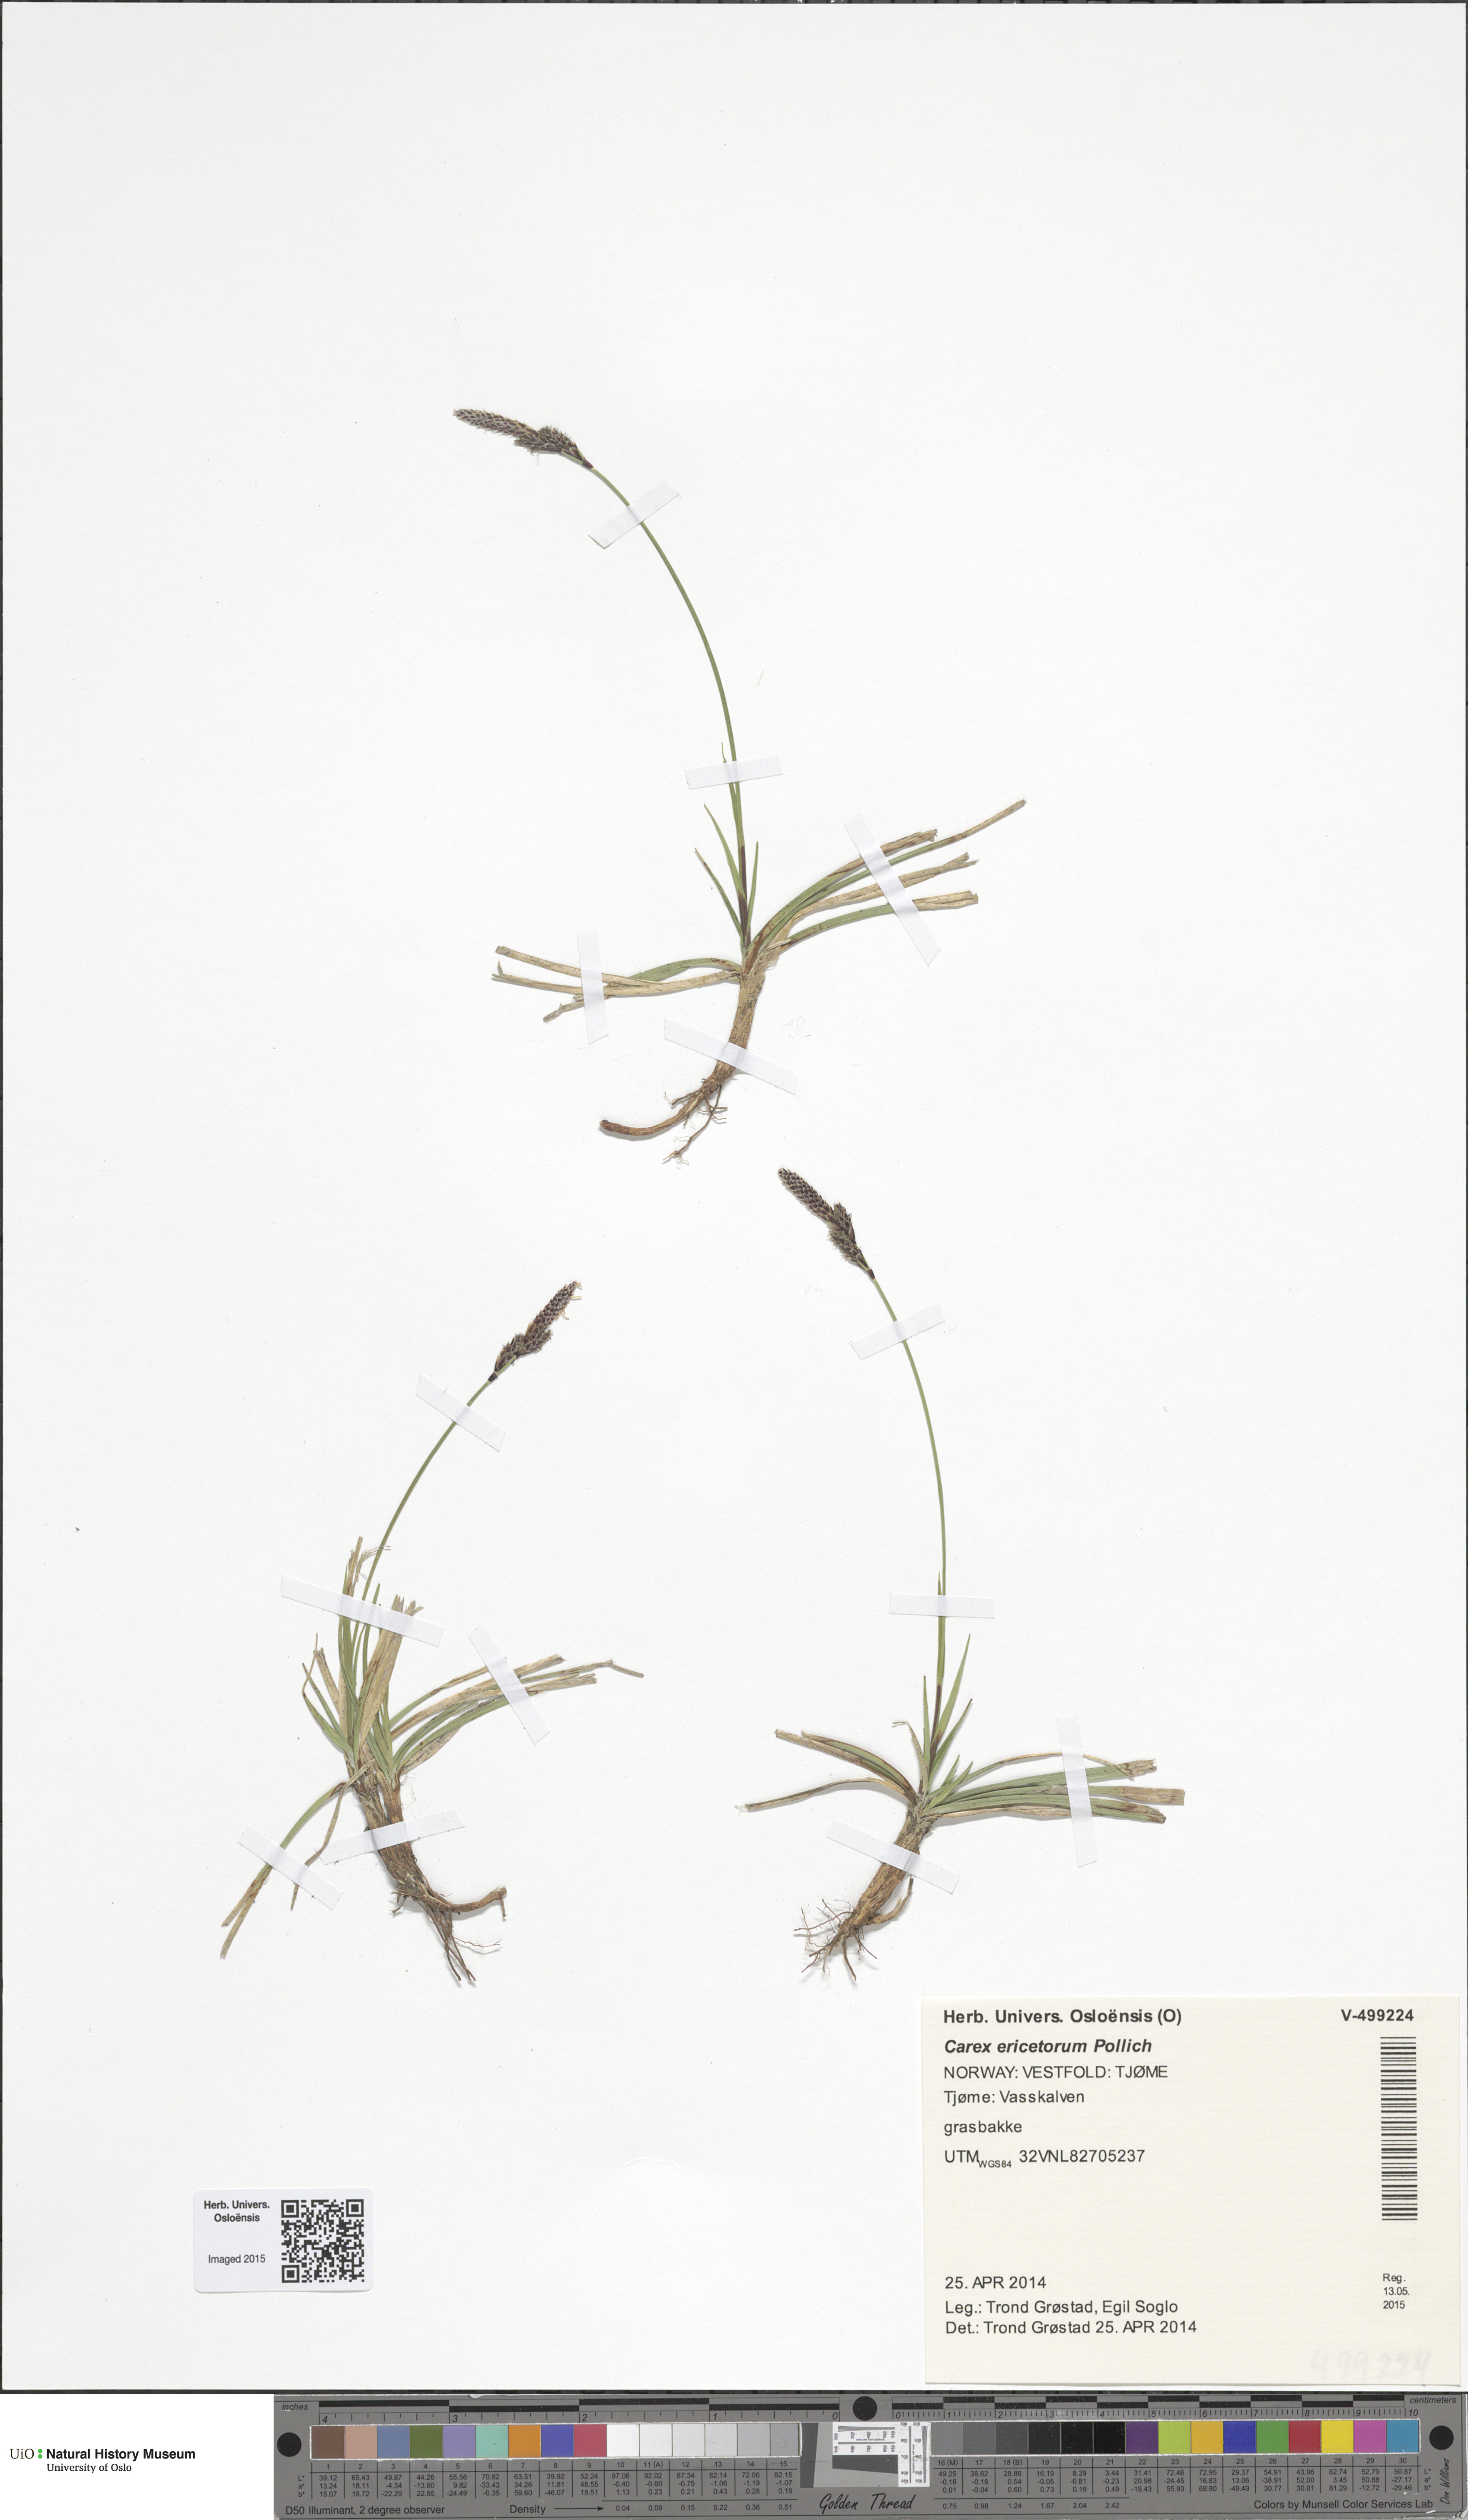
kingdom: Plantae
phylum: Tracheophyta
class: Liliopsida
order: Poales
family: Cyperaceae
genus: Carex
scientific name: Carex ericetorum
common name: Rare spring-sedge
